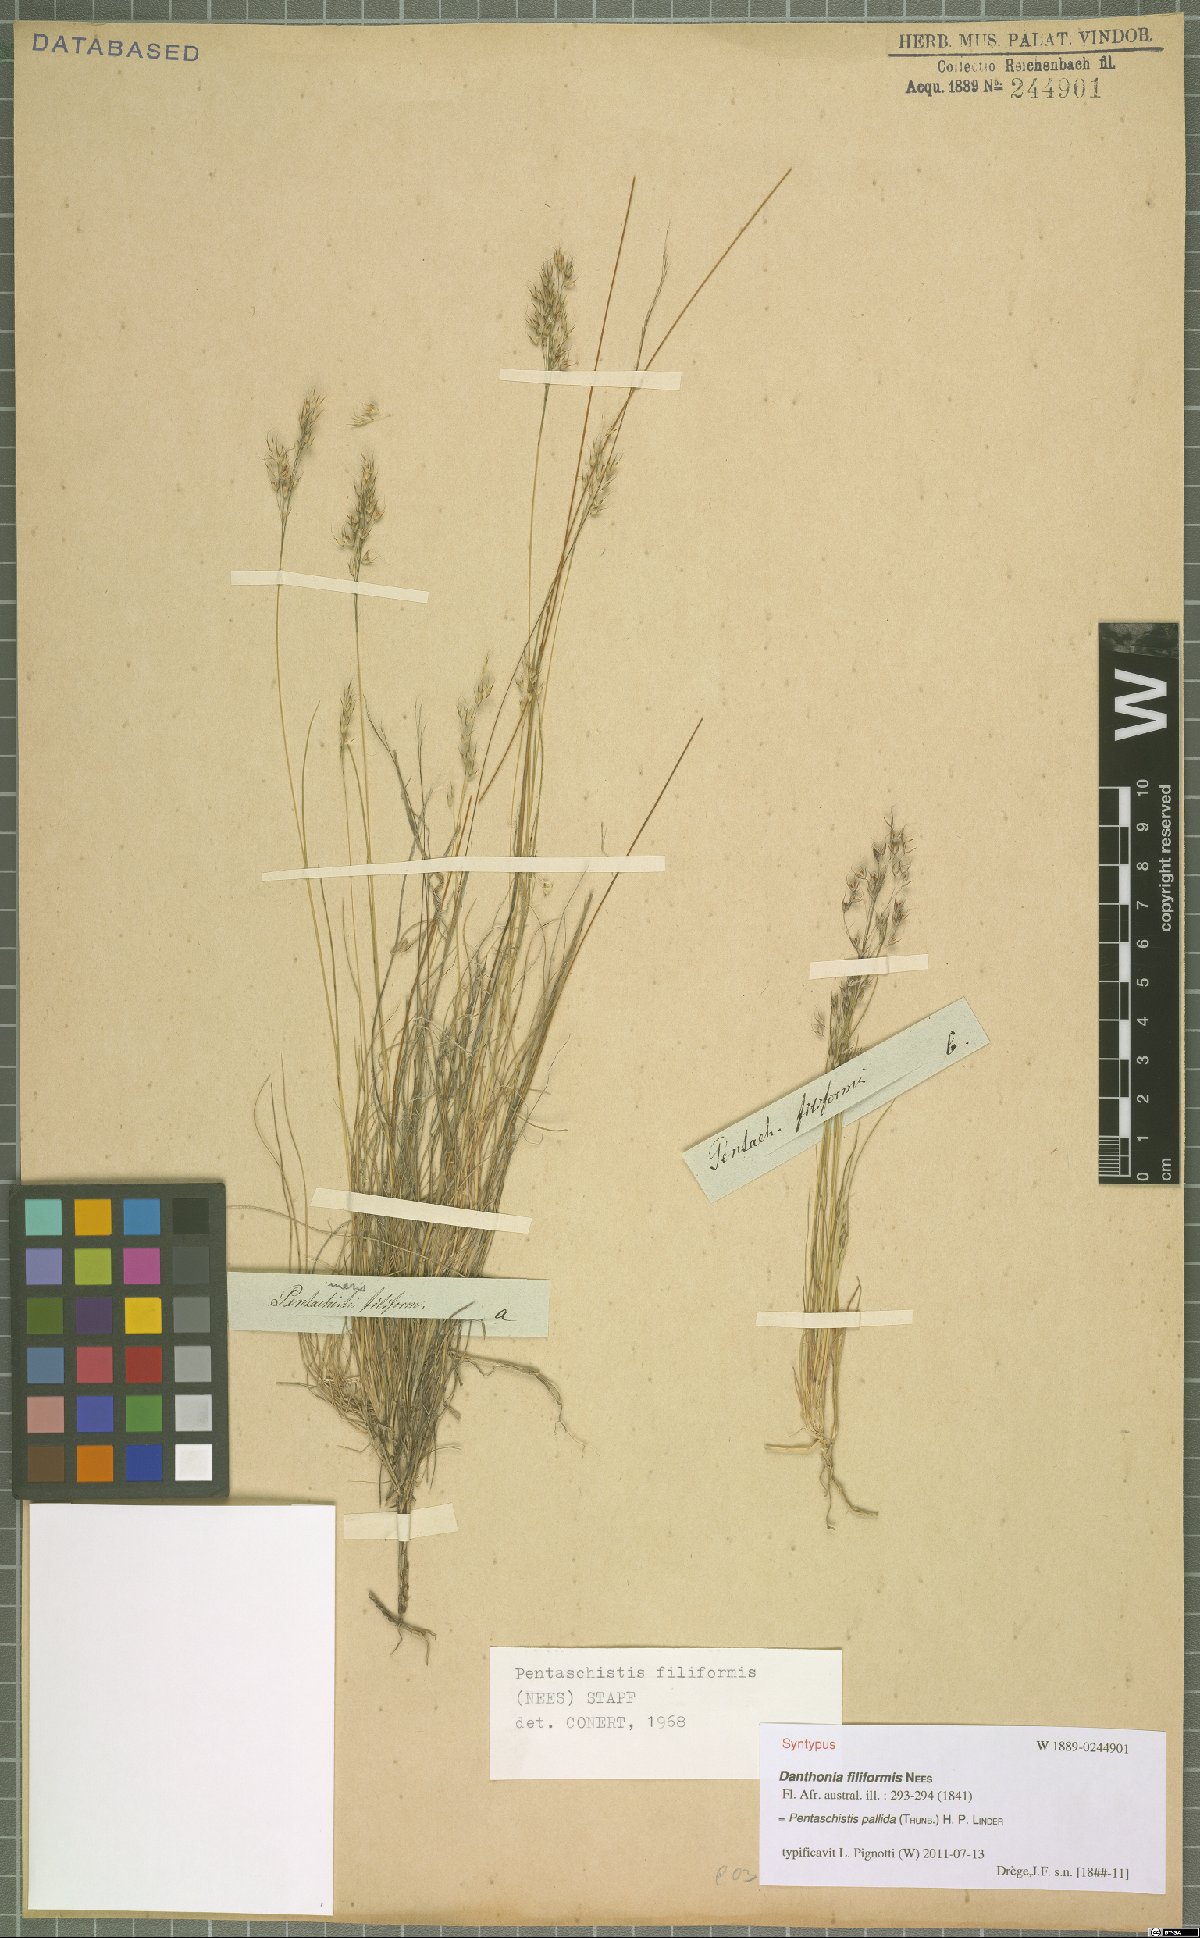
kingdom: Plantae
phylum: Tracheophyta
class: Liliopsida
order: Poales
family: Poaceae
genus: Pentameris
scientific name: Pentameris pallida
